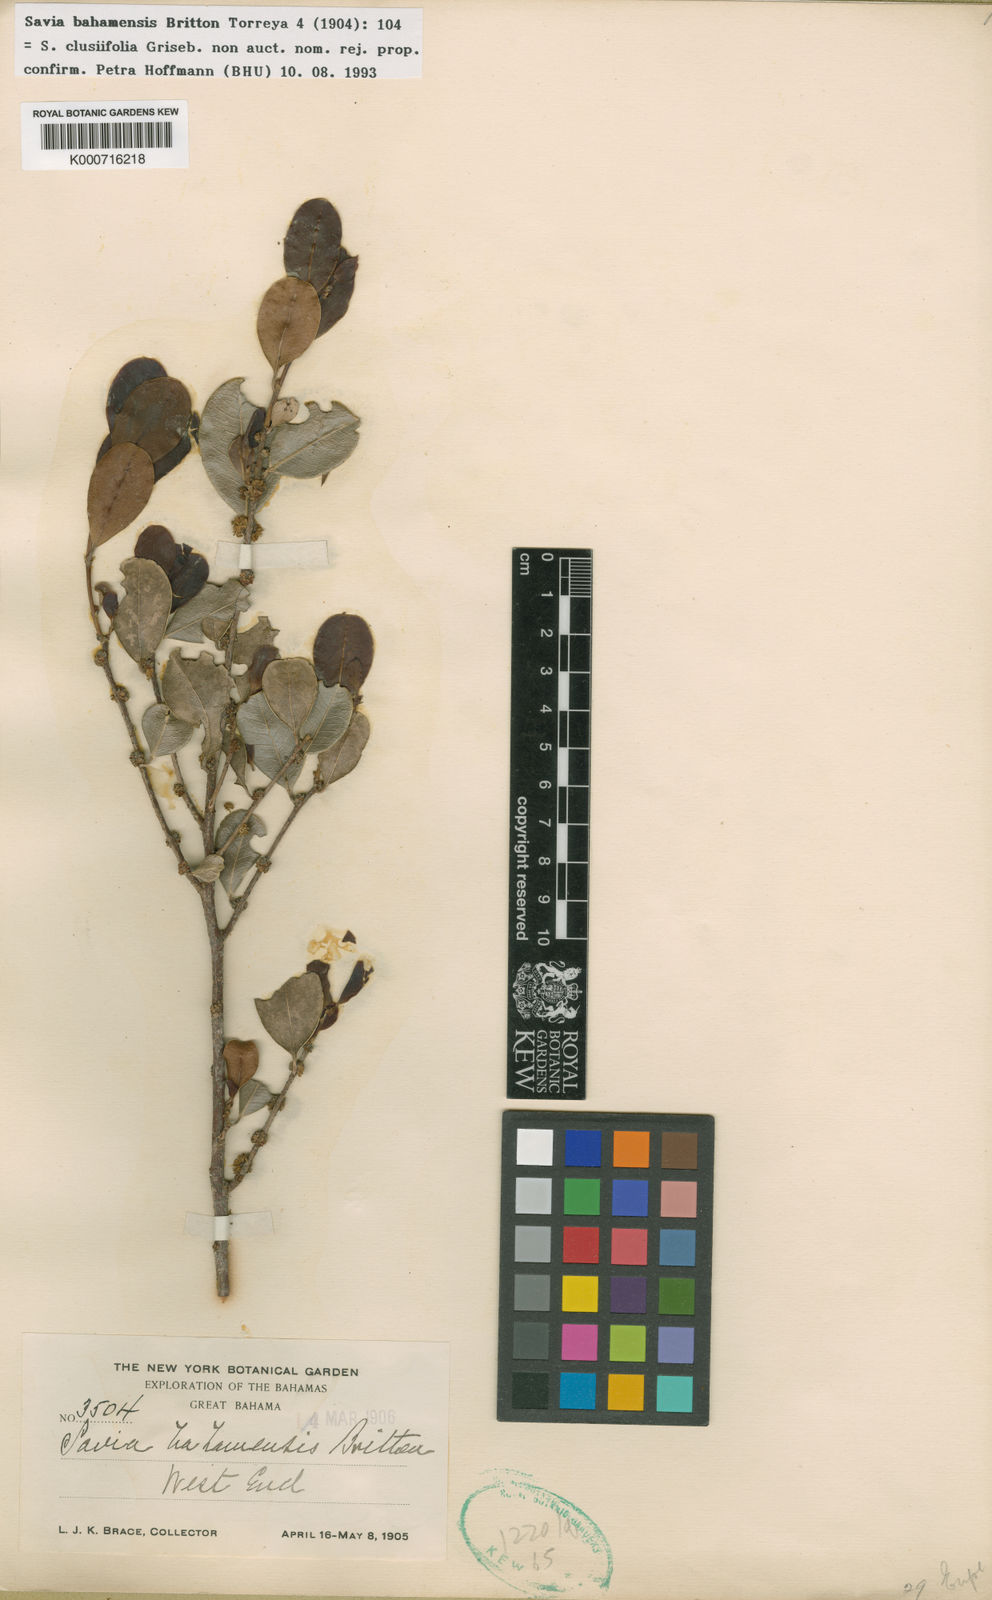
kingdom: Plantae
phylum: Tracheophyta
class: Magnoliopsida
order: Malpighiales
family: Phyllanthaceae
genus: Heterosavia
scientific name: Heterosavia bahamensis
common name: Bahama maidenbush
